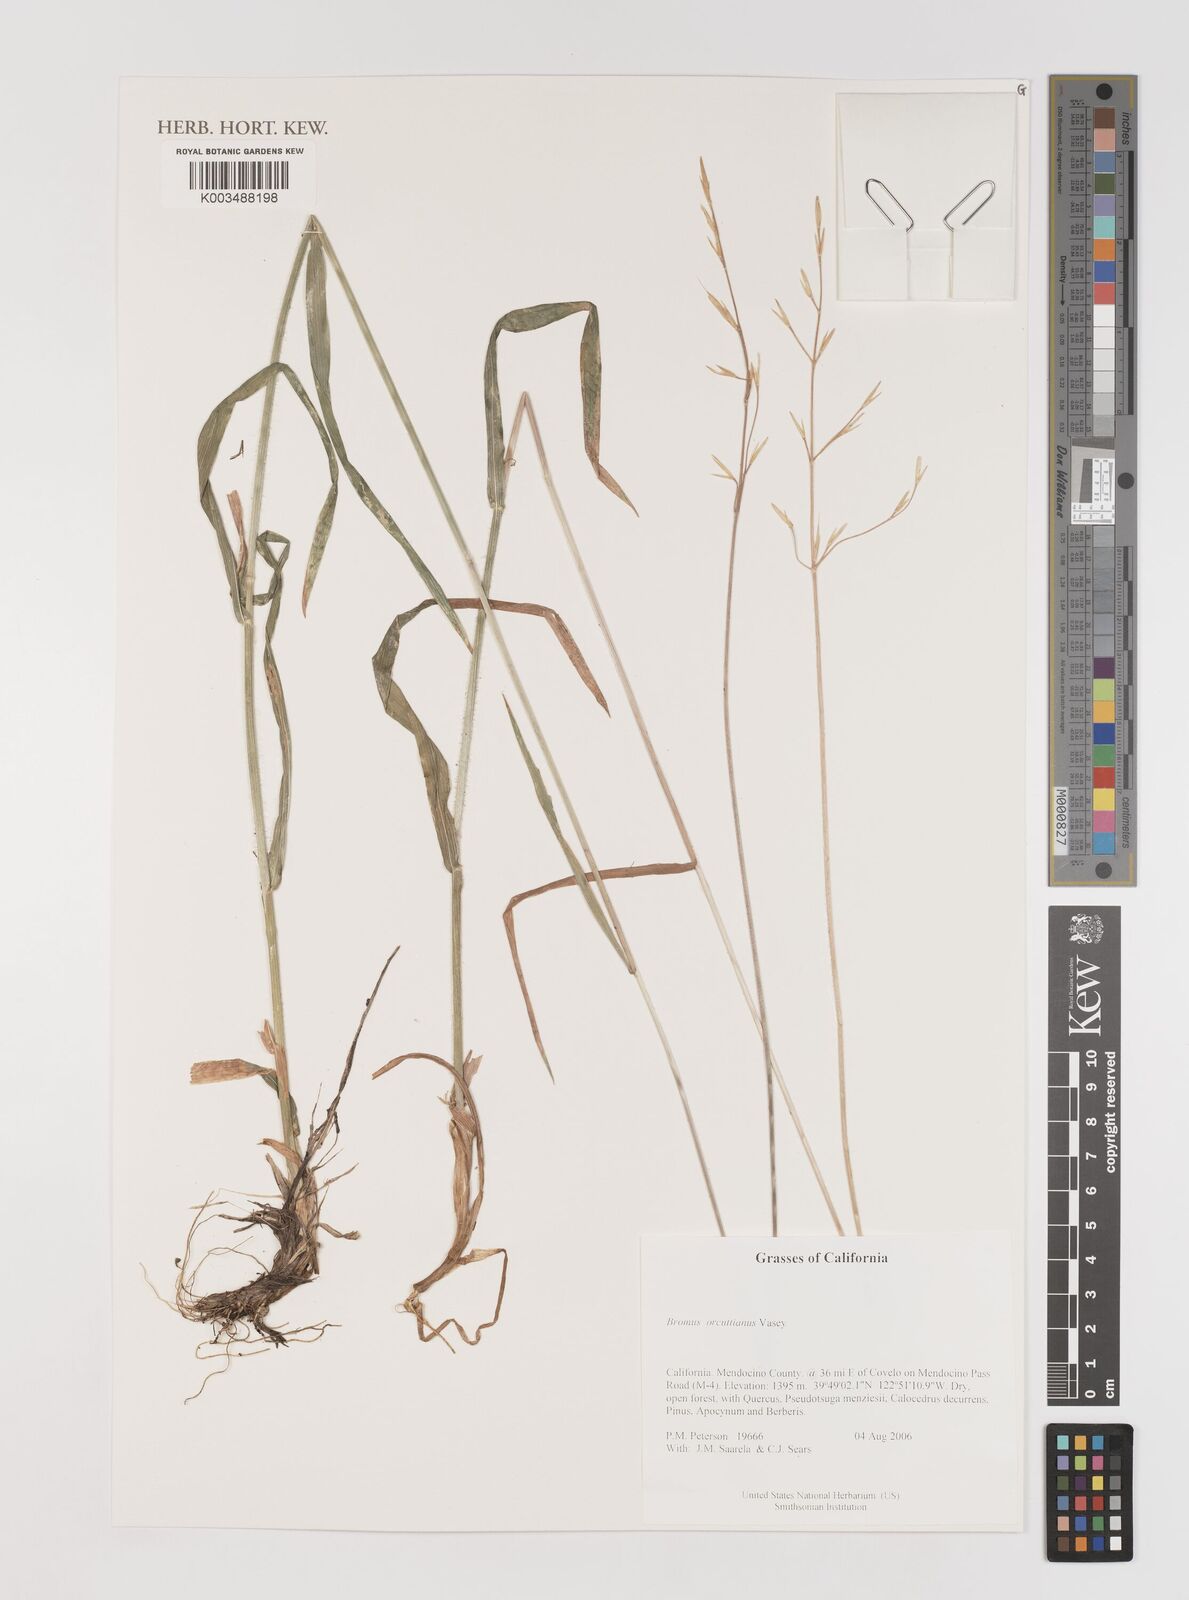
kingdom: Plantae
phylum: Tracheophyta
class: Liliopsida
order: Poales
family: Poaceae
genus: Bromus
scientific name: Bromus orcuttianus
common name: Orcutt's brome
